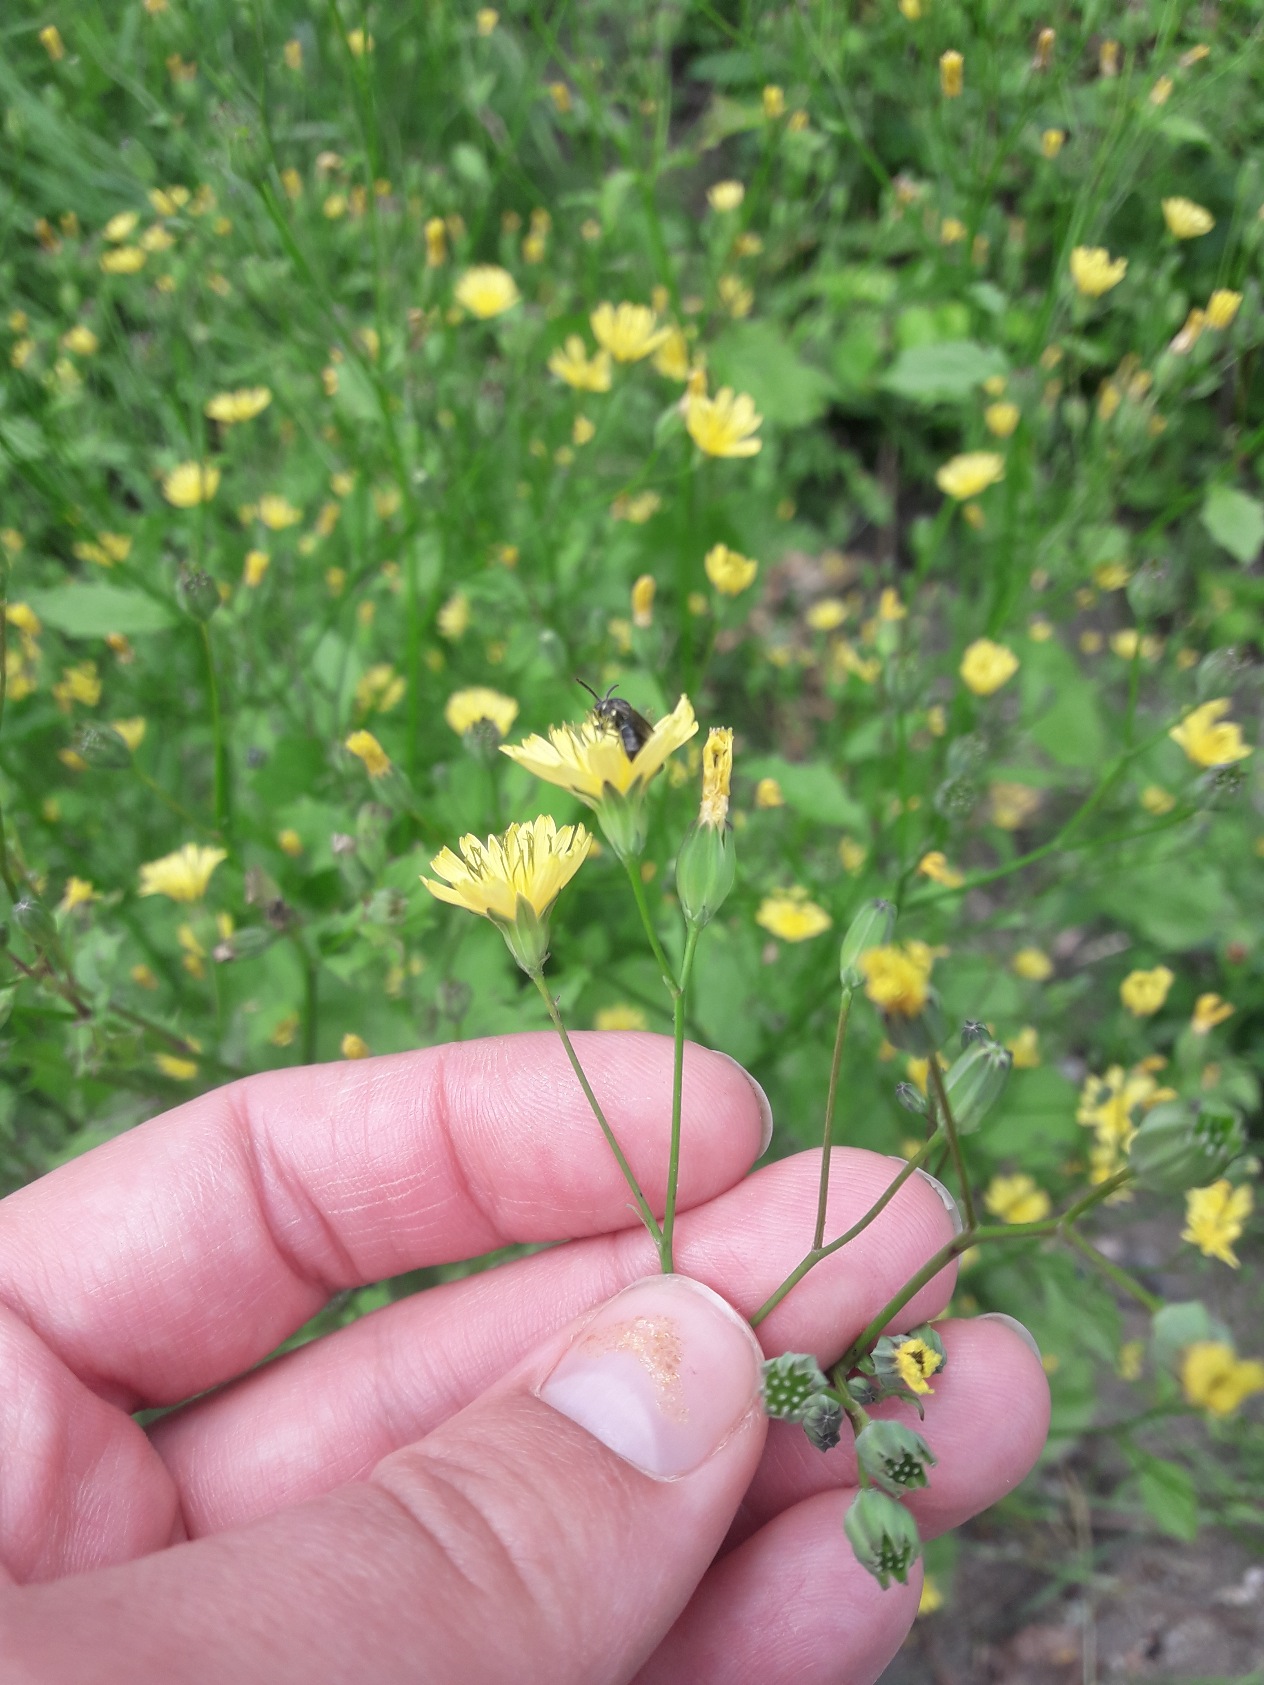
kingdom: Plantae
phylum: Tracheophyta
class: Magnoliopsida
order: Asterales
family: Asteraceae
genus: Lapsana
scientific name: Lapsana communis
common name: Haremad
